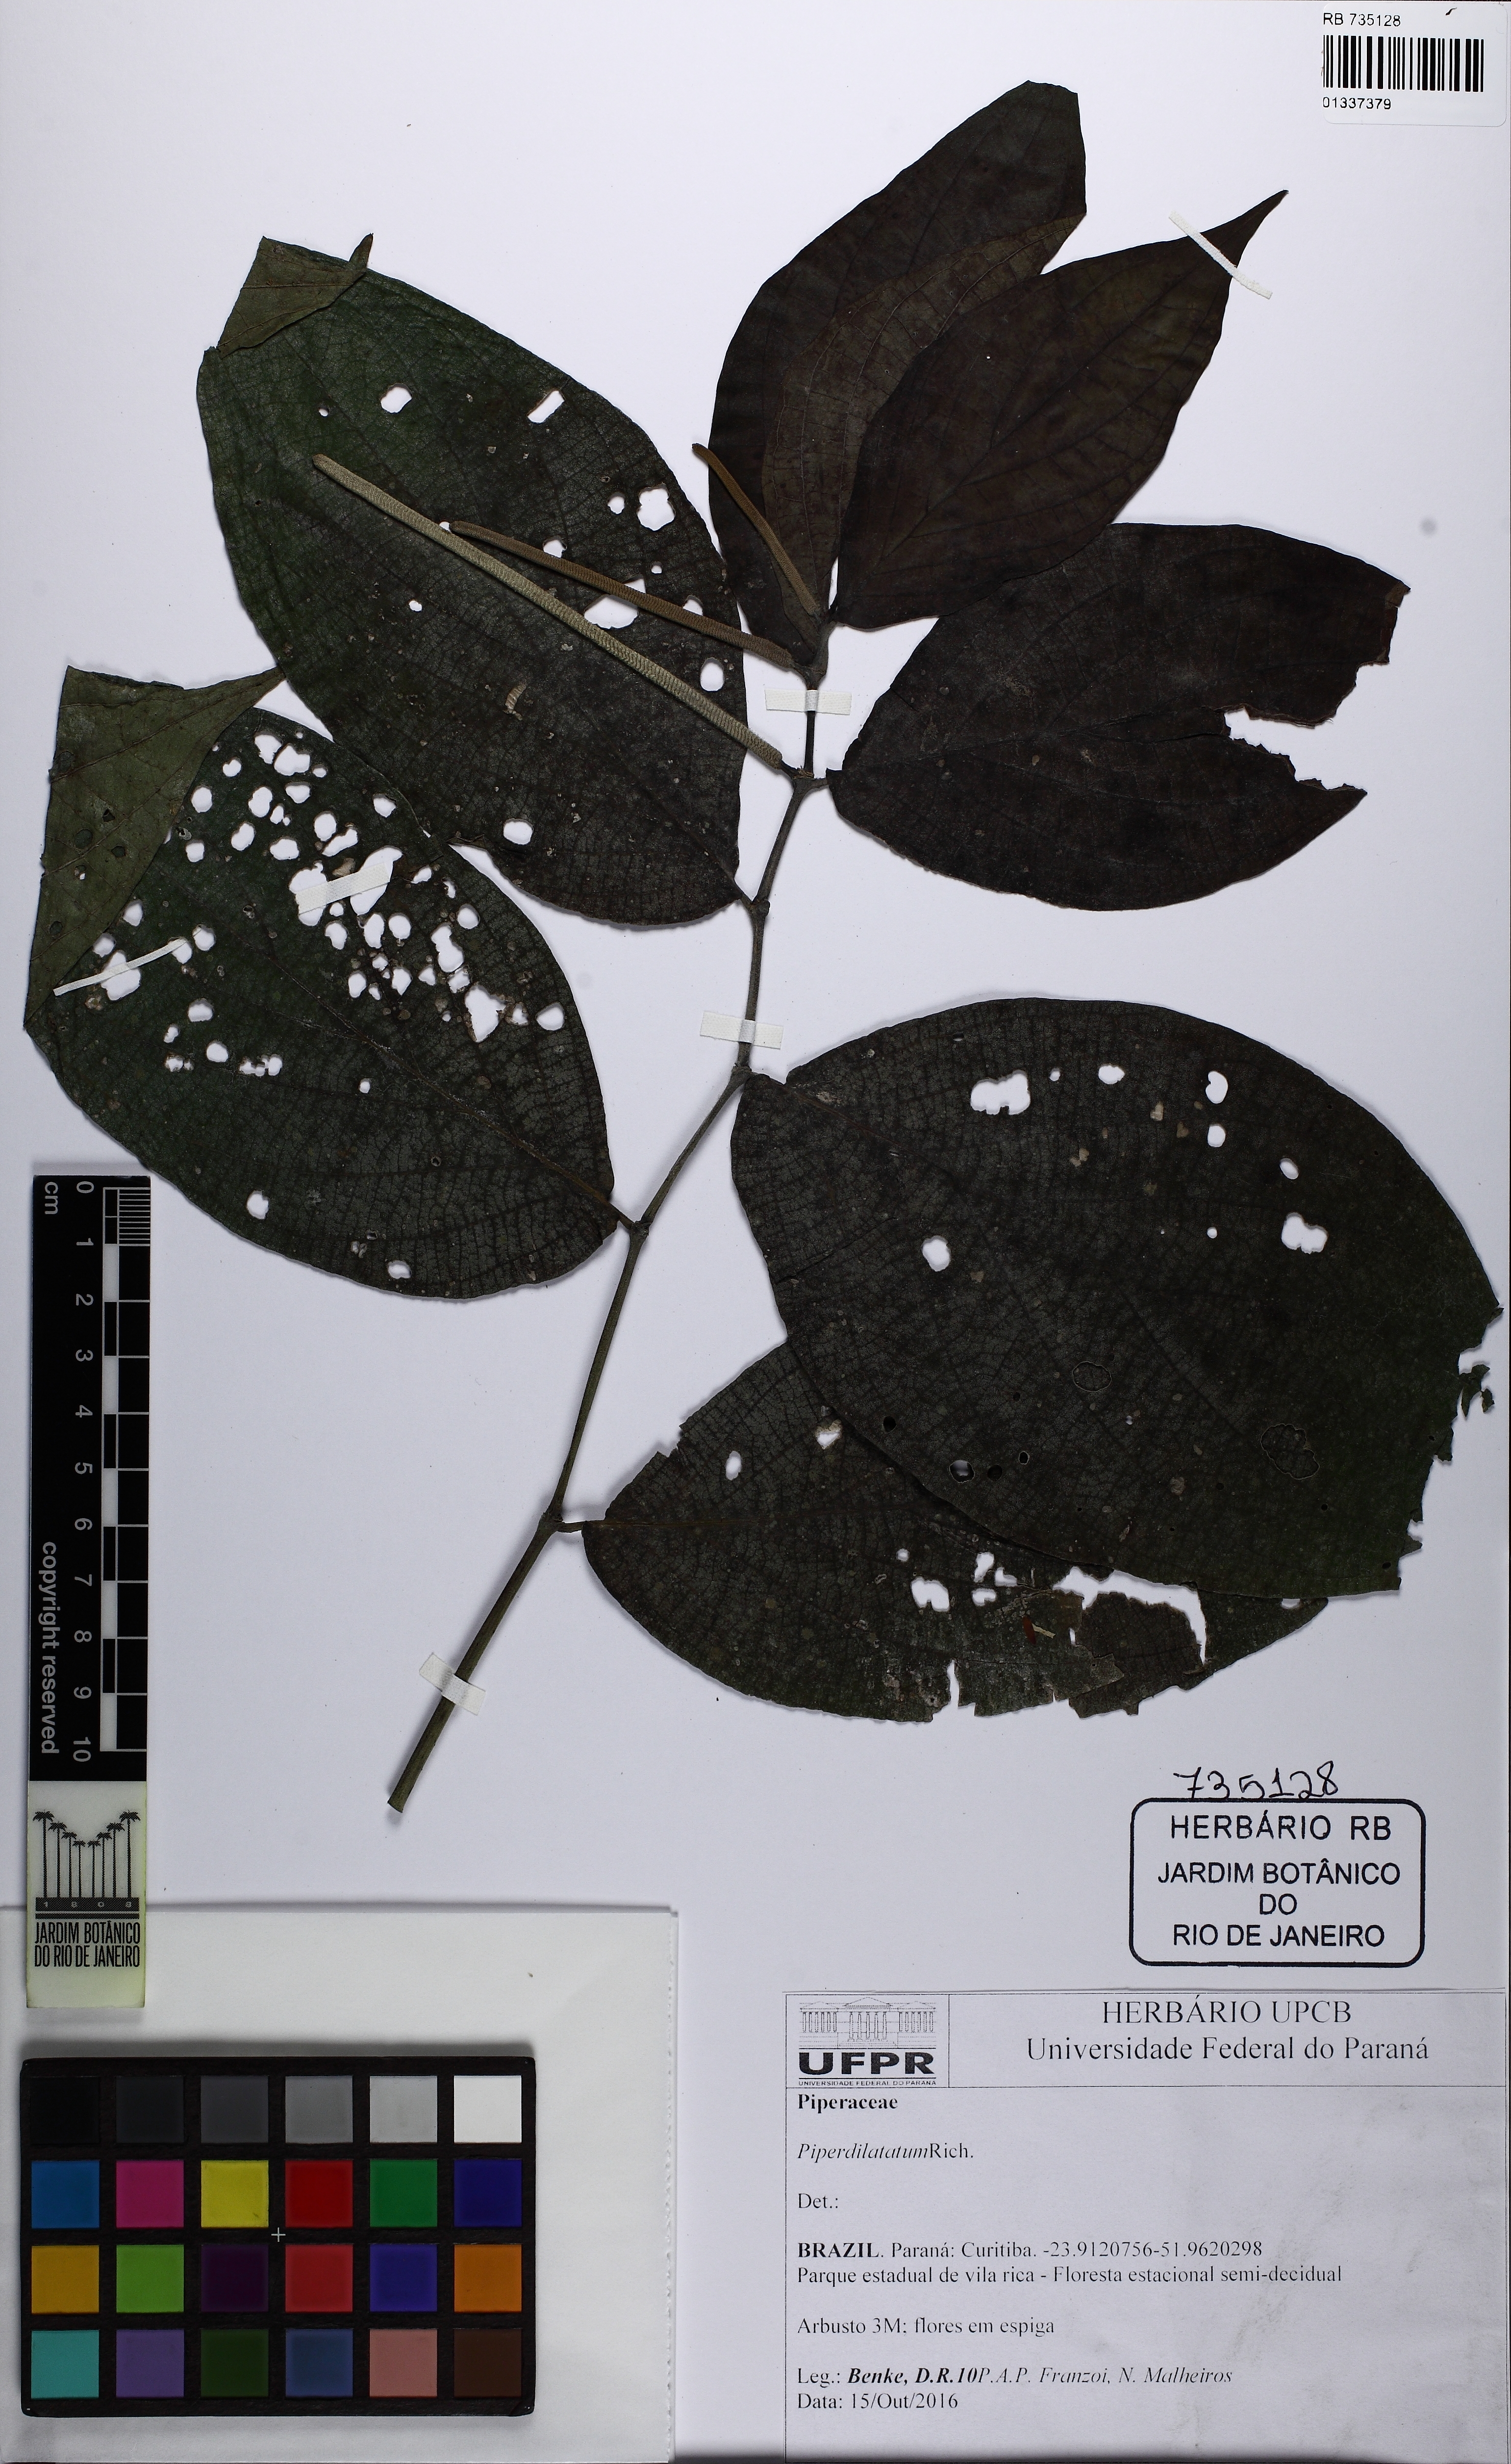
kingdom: Plantae
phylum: Tracheophyta
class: Magnoliopsida
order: Piperales
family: Piperaceae
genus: Piper
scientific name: Piper dilatatum
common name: Higuillo
